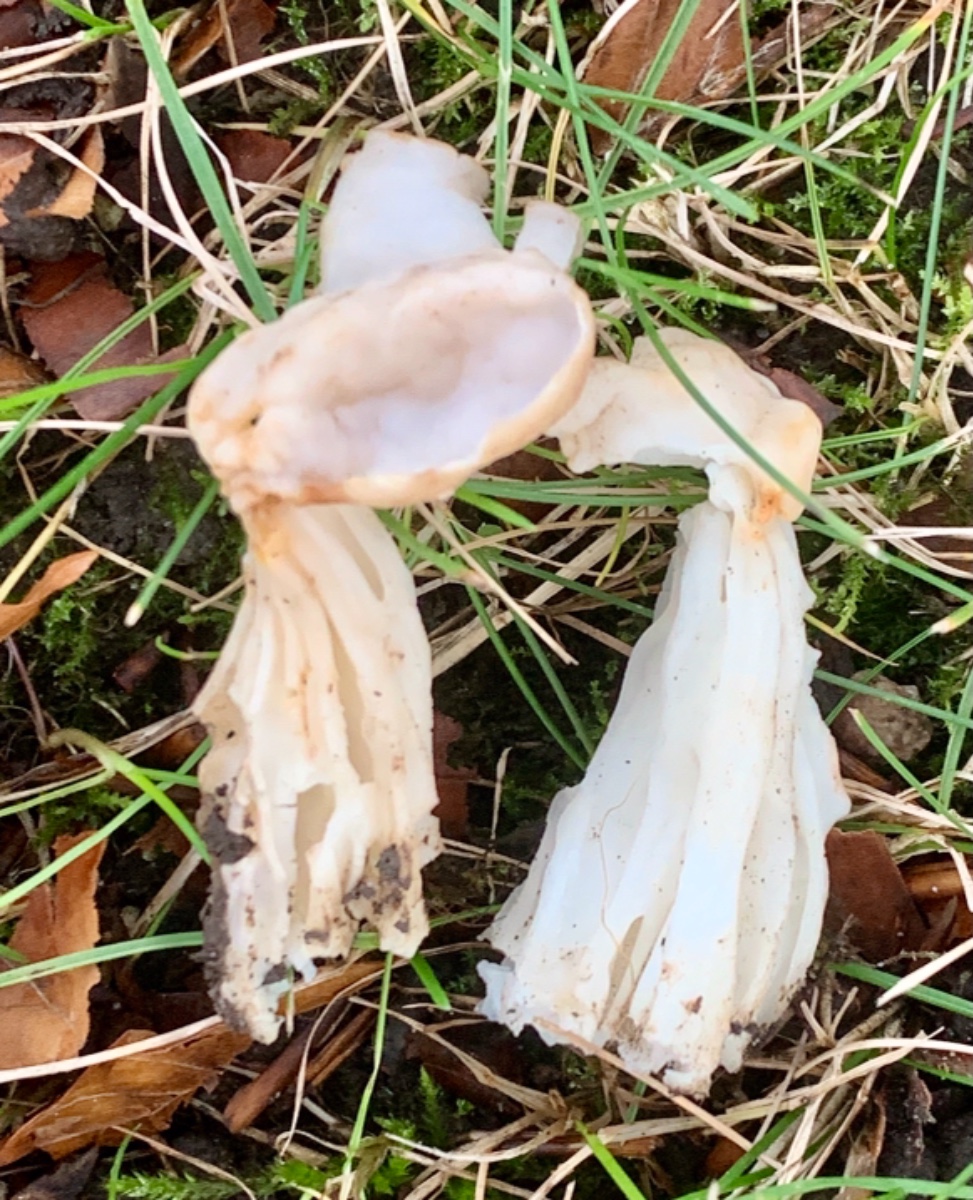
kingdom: Fungi
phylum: Ascomycota
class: Pezizomycetes
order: Pezizales
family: Helvellaceae
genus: Helvella
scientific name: Helvella crispa
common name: kruset foldhat
